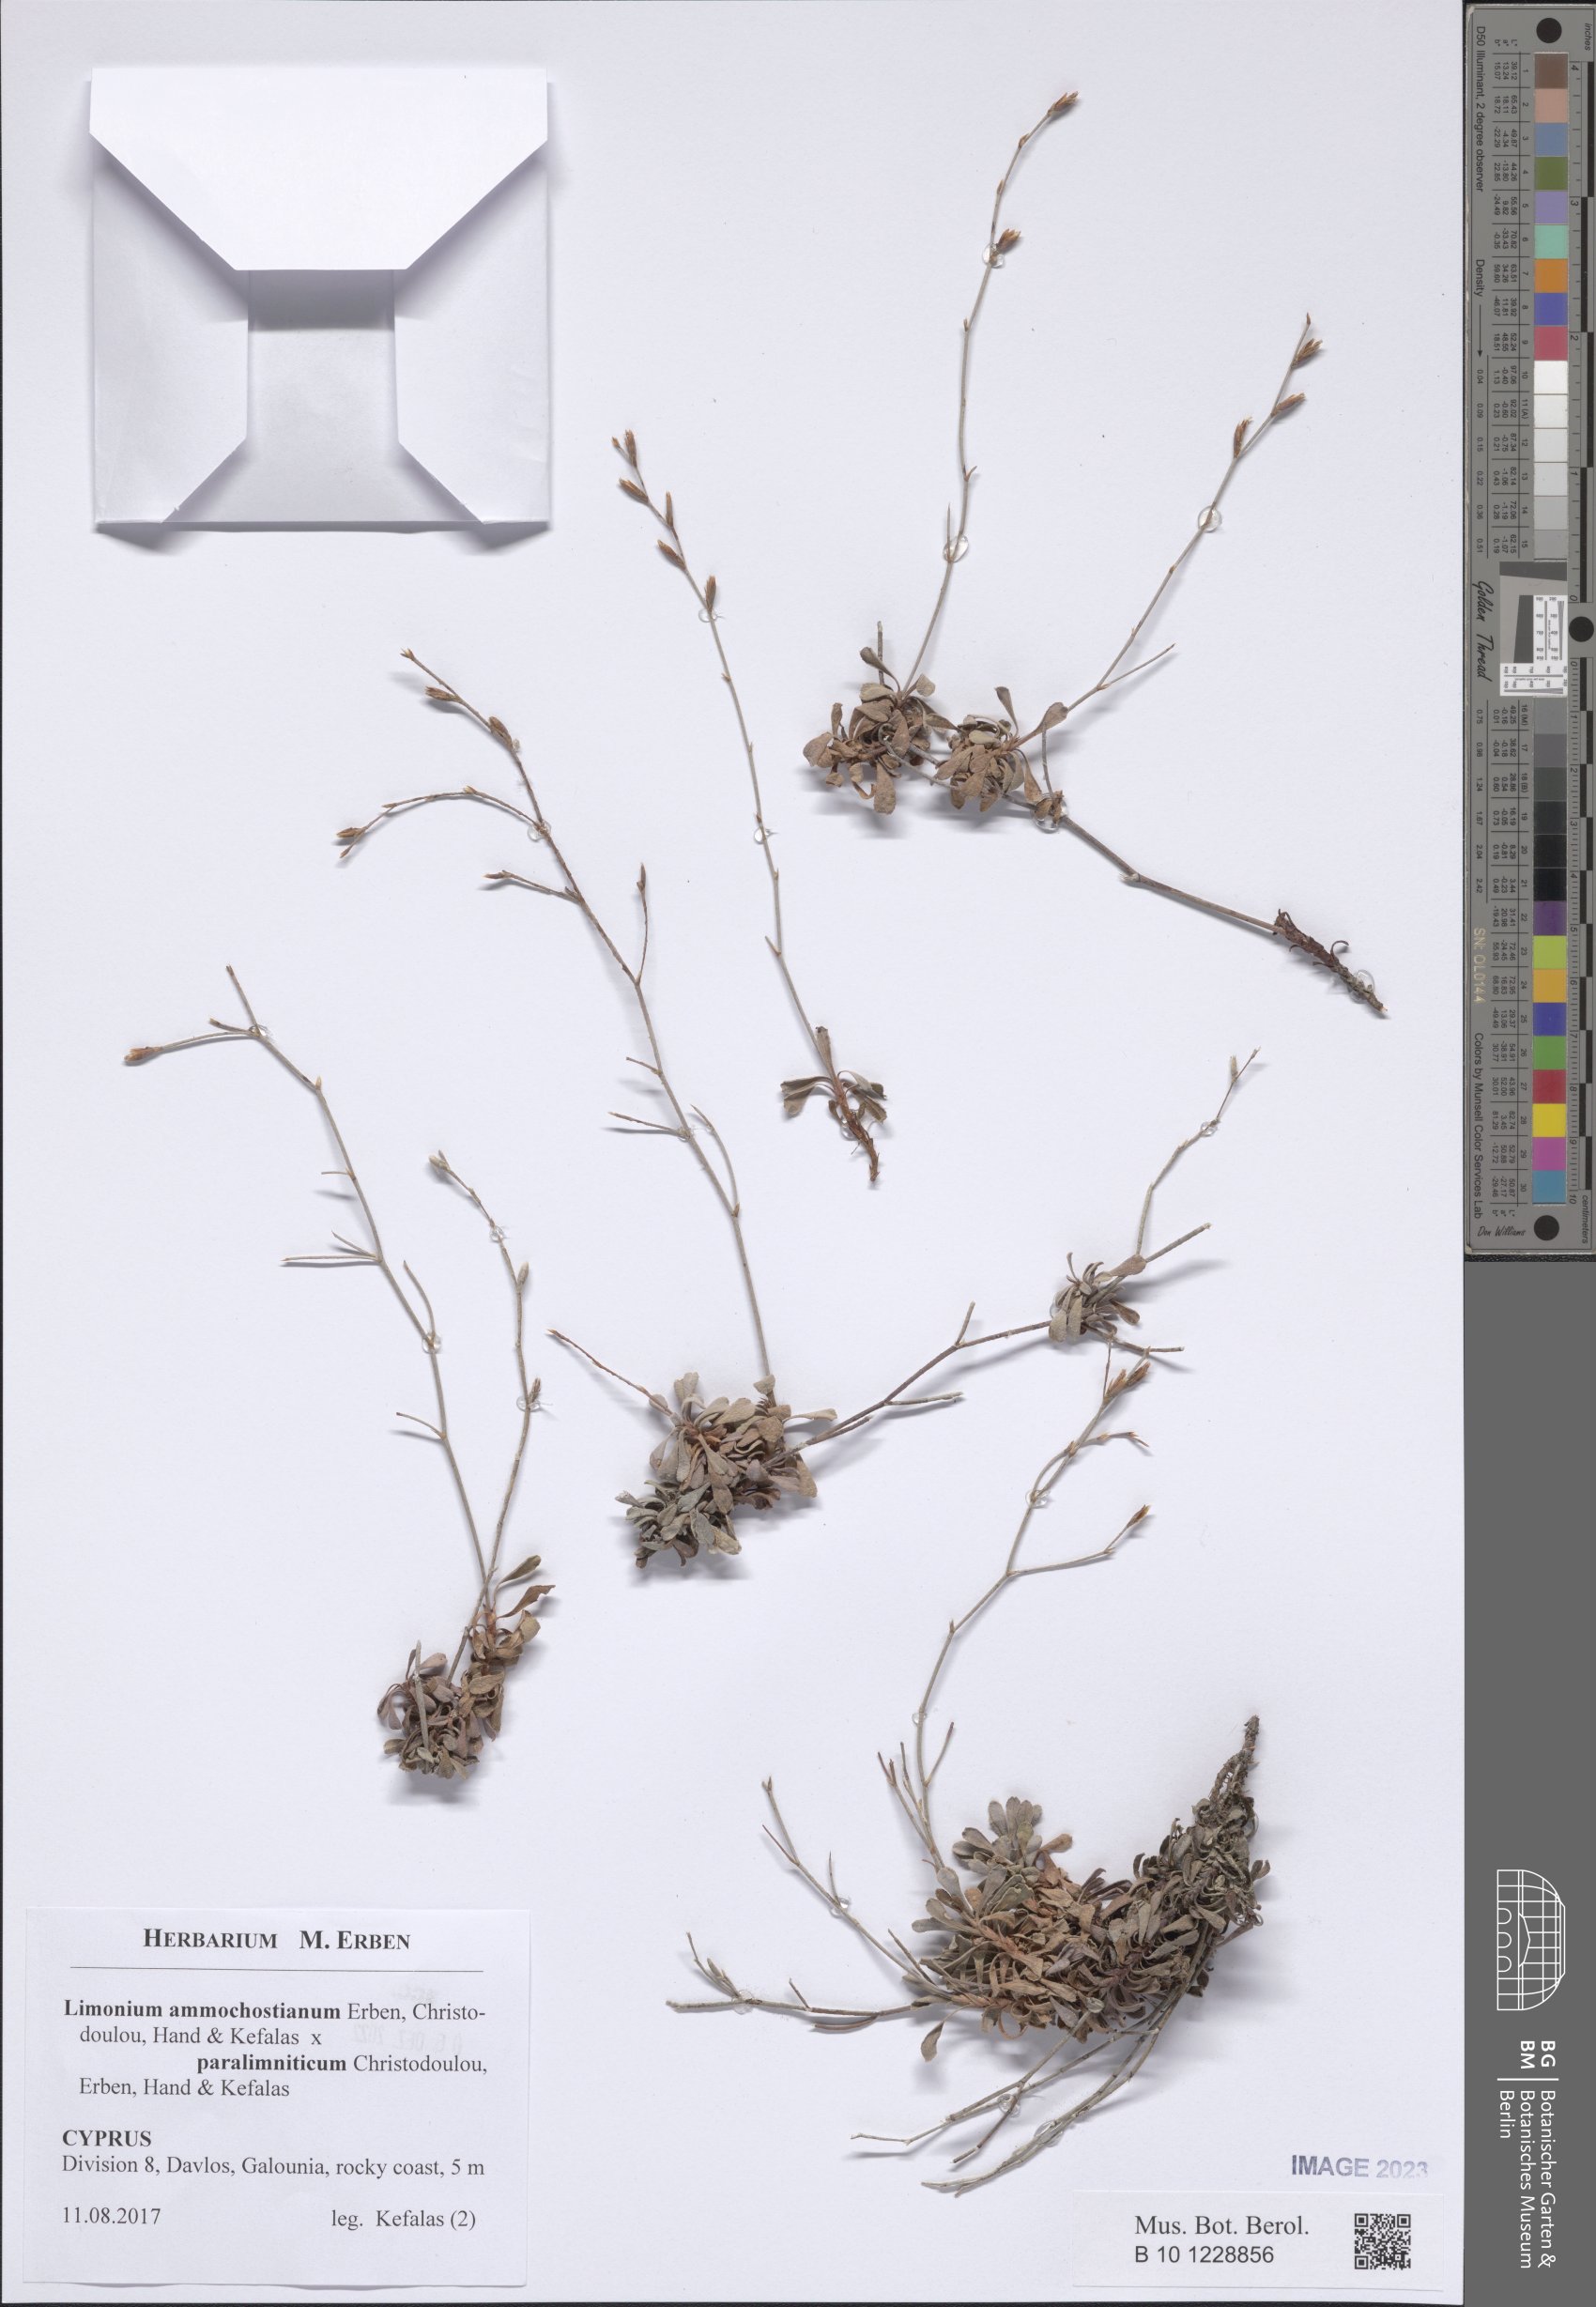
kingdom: Plantae
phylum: Tracheophyta
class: Magnoliopsida
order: Caryophyllales
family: Plumbaginaceae
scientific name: Plumbaginaceae
